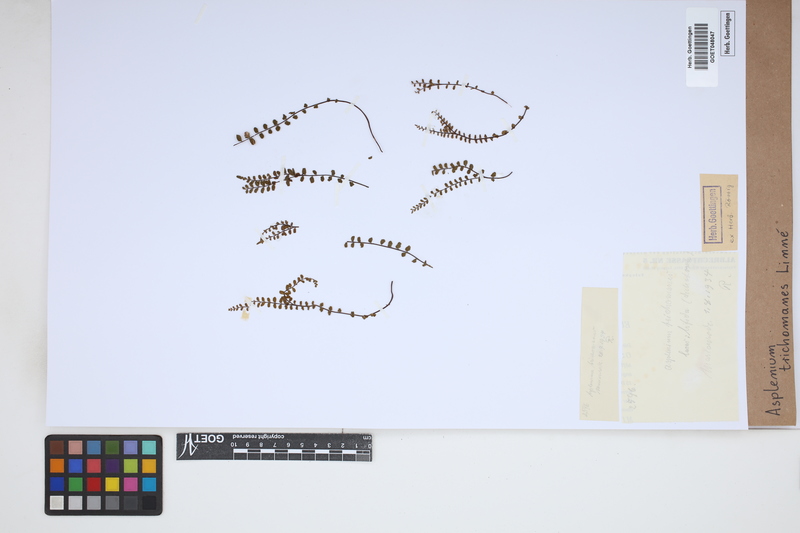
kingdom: Plantae
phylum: Tracheophyta
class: Polypodiopsida
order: Polypodiales
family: Aspleniaceae
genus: Asplenium
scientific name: Asplenium trichomanes
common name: Maidenhair spleenwort
